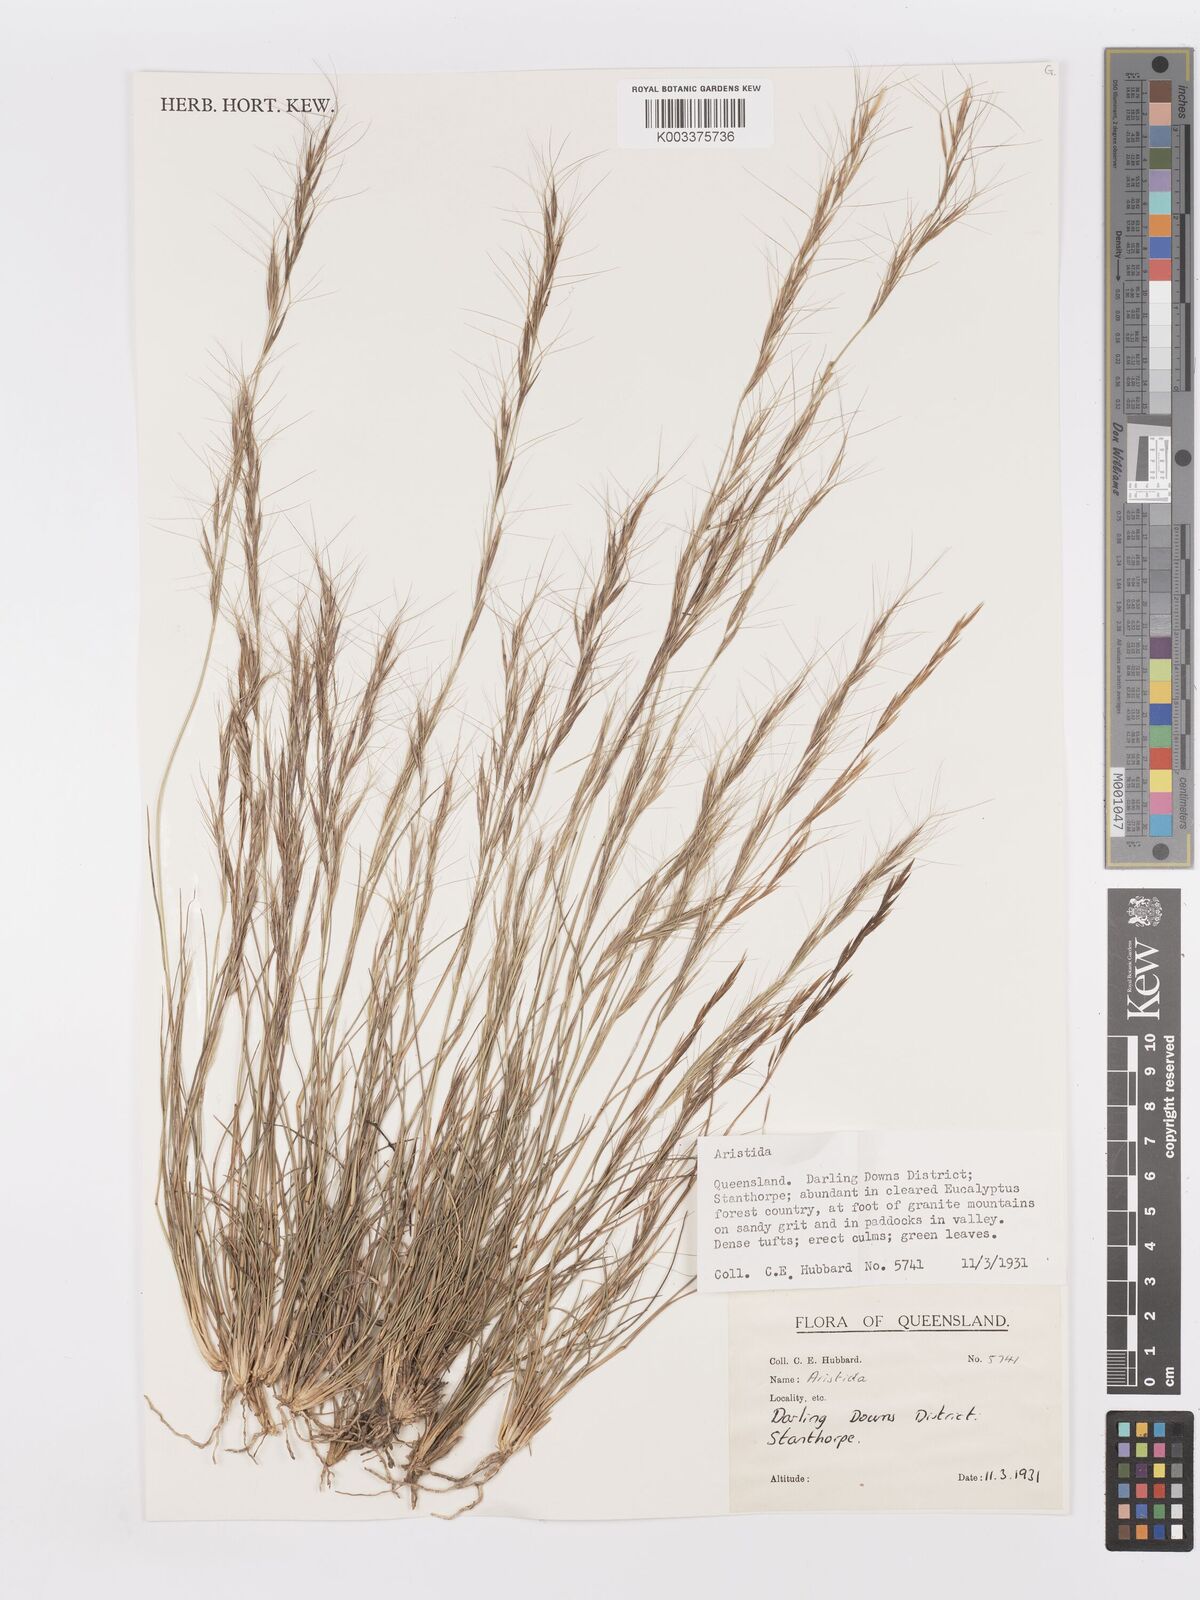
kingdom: Plantae
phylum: Tracheophyta
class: Liliopsida
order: Poales
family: Poaceae
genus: Aristida
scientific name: Aristida
